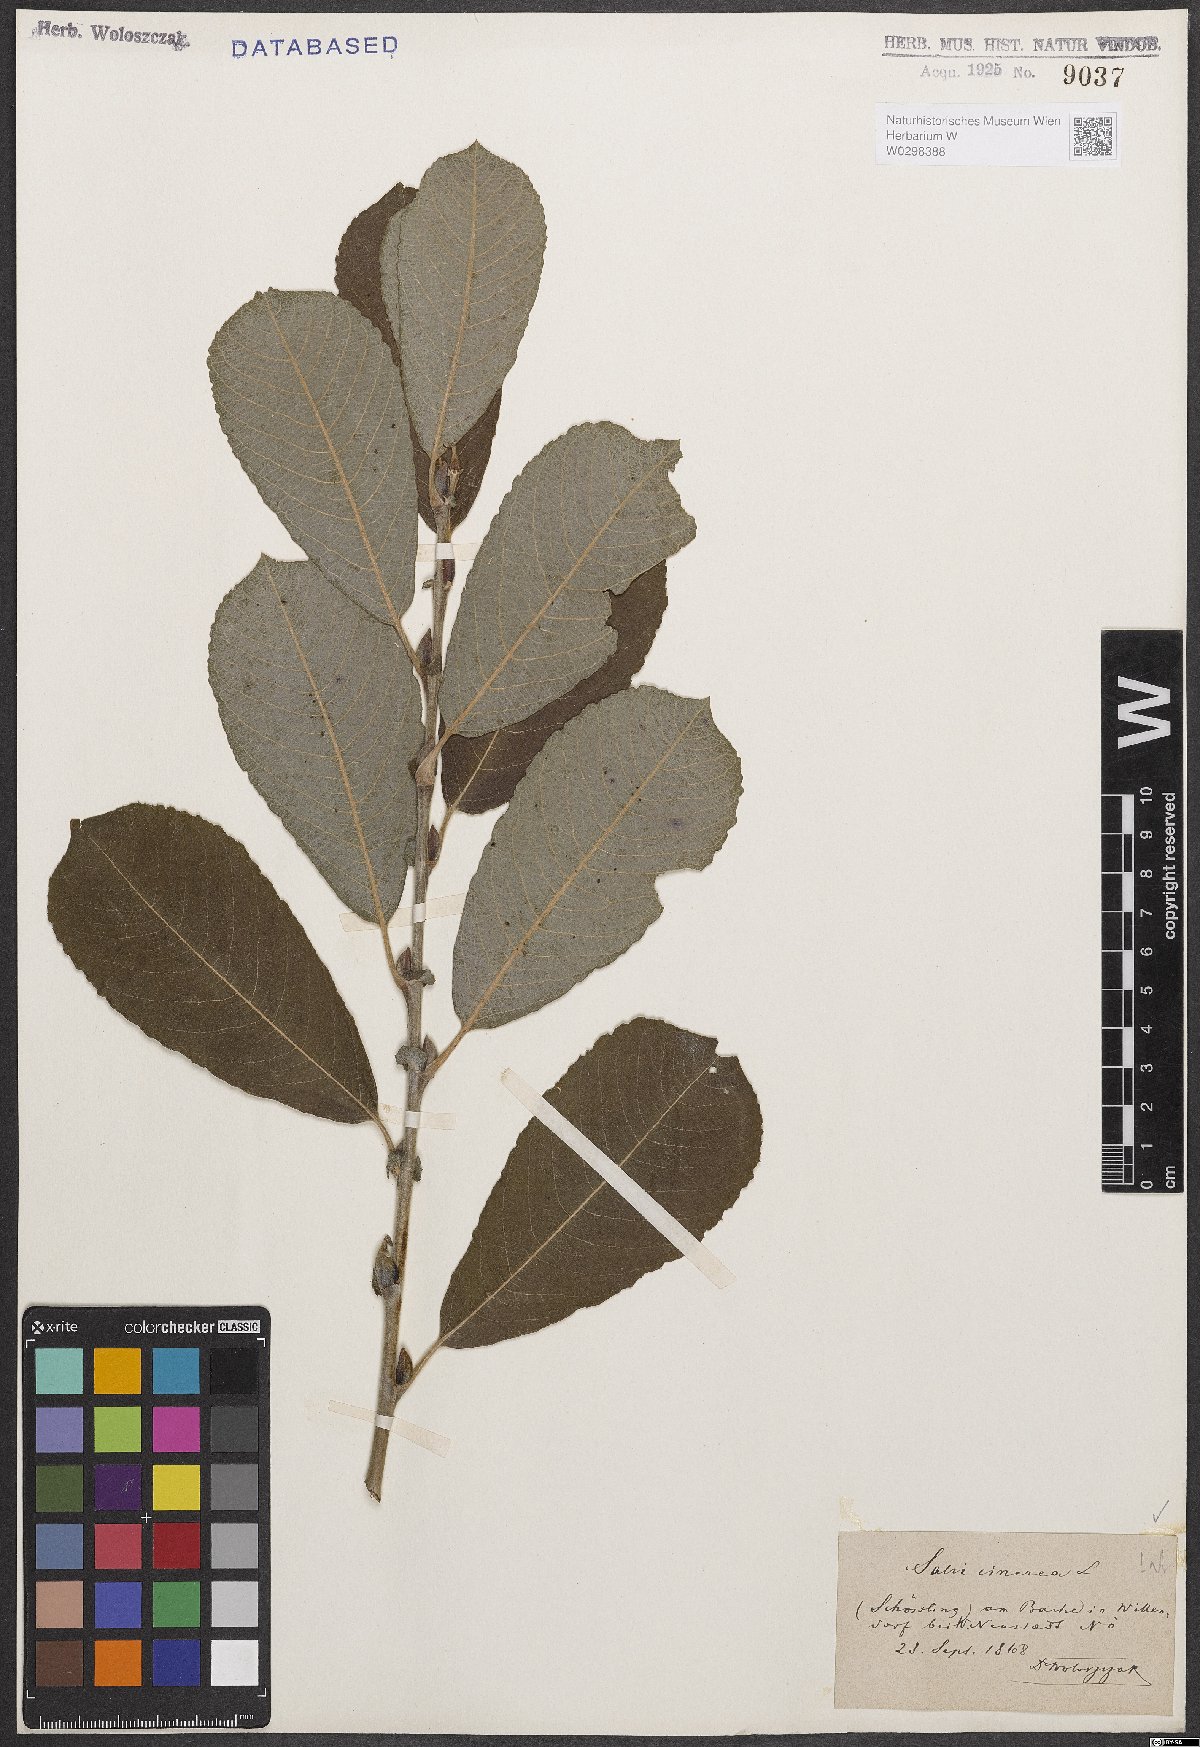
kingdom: Plantae
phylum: Tracheophyta
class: Magnoliopsida
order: Malpighiales
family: Salicaceae
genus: Salix
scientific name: Salix cinerea
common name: Common sallow
